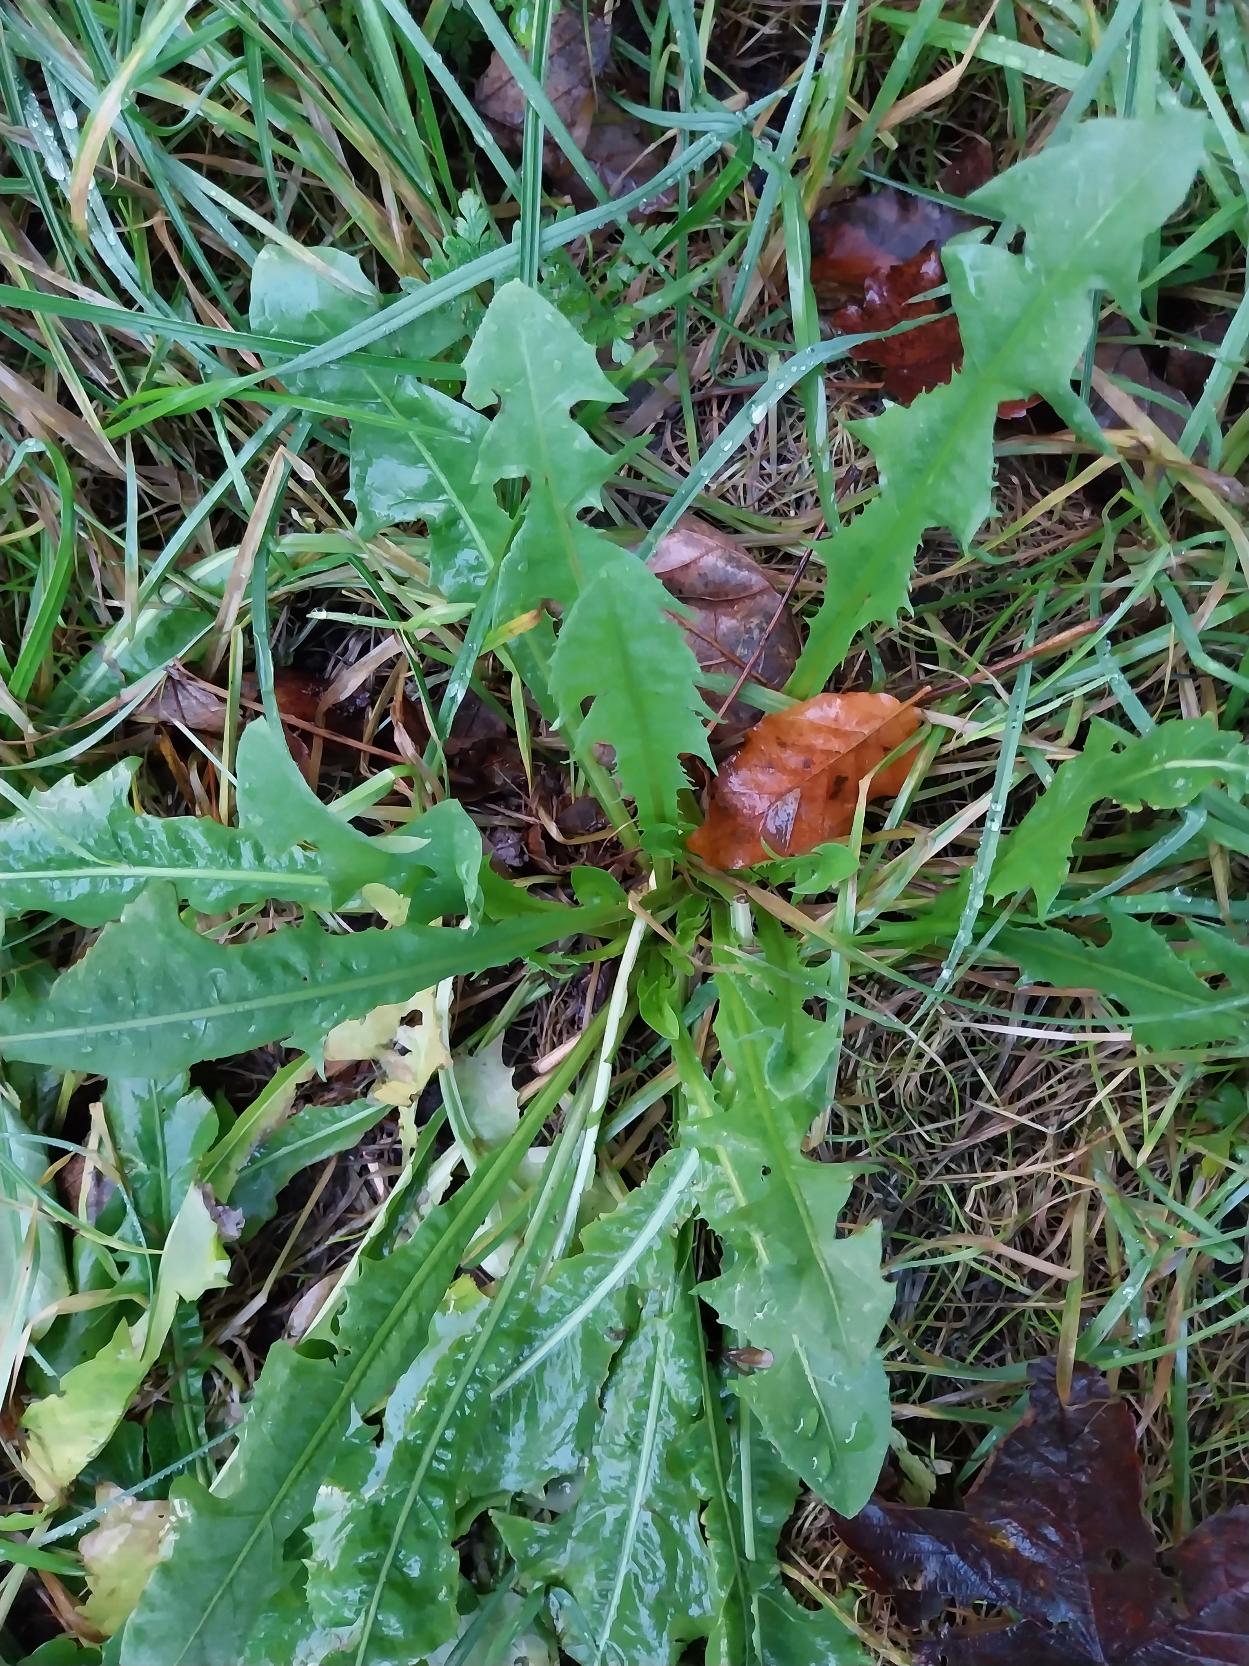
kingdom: Plantae
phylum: Tracheophyta
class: Magnoliopsida
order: Asterales
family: Asteraceae
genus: Taraxacum
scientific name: Taraxacum
